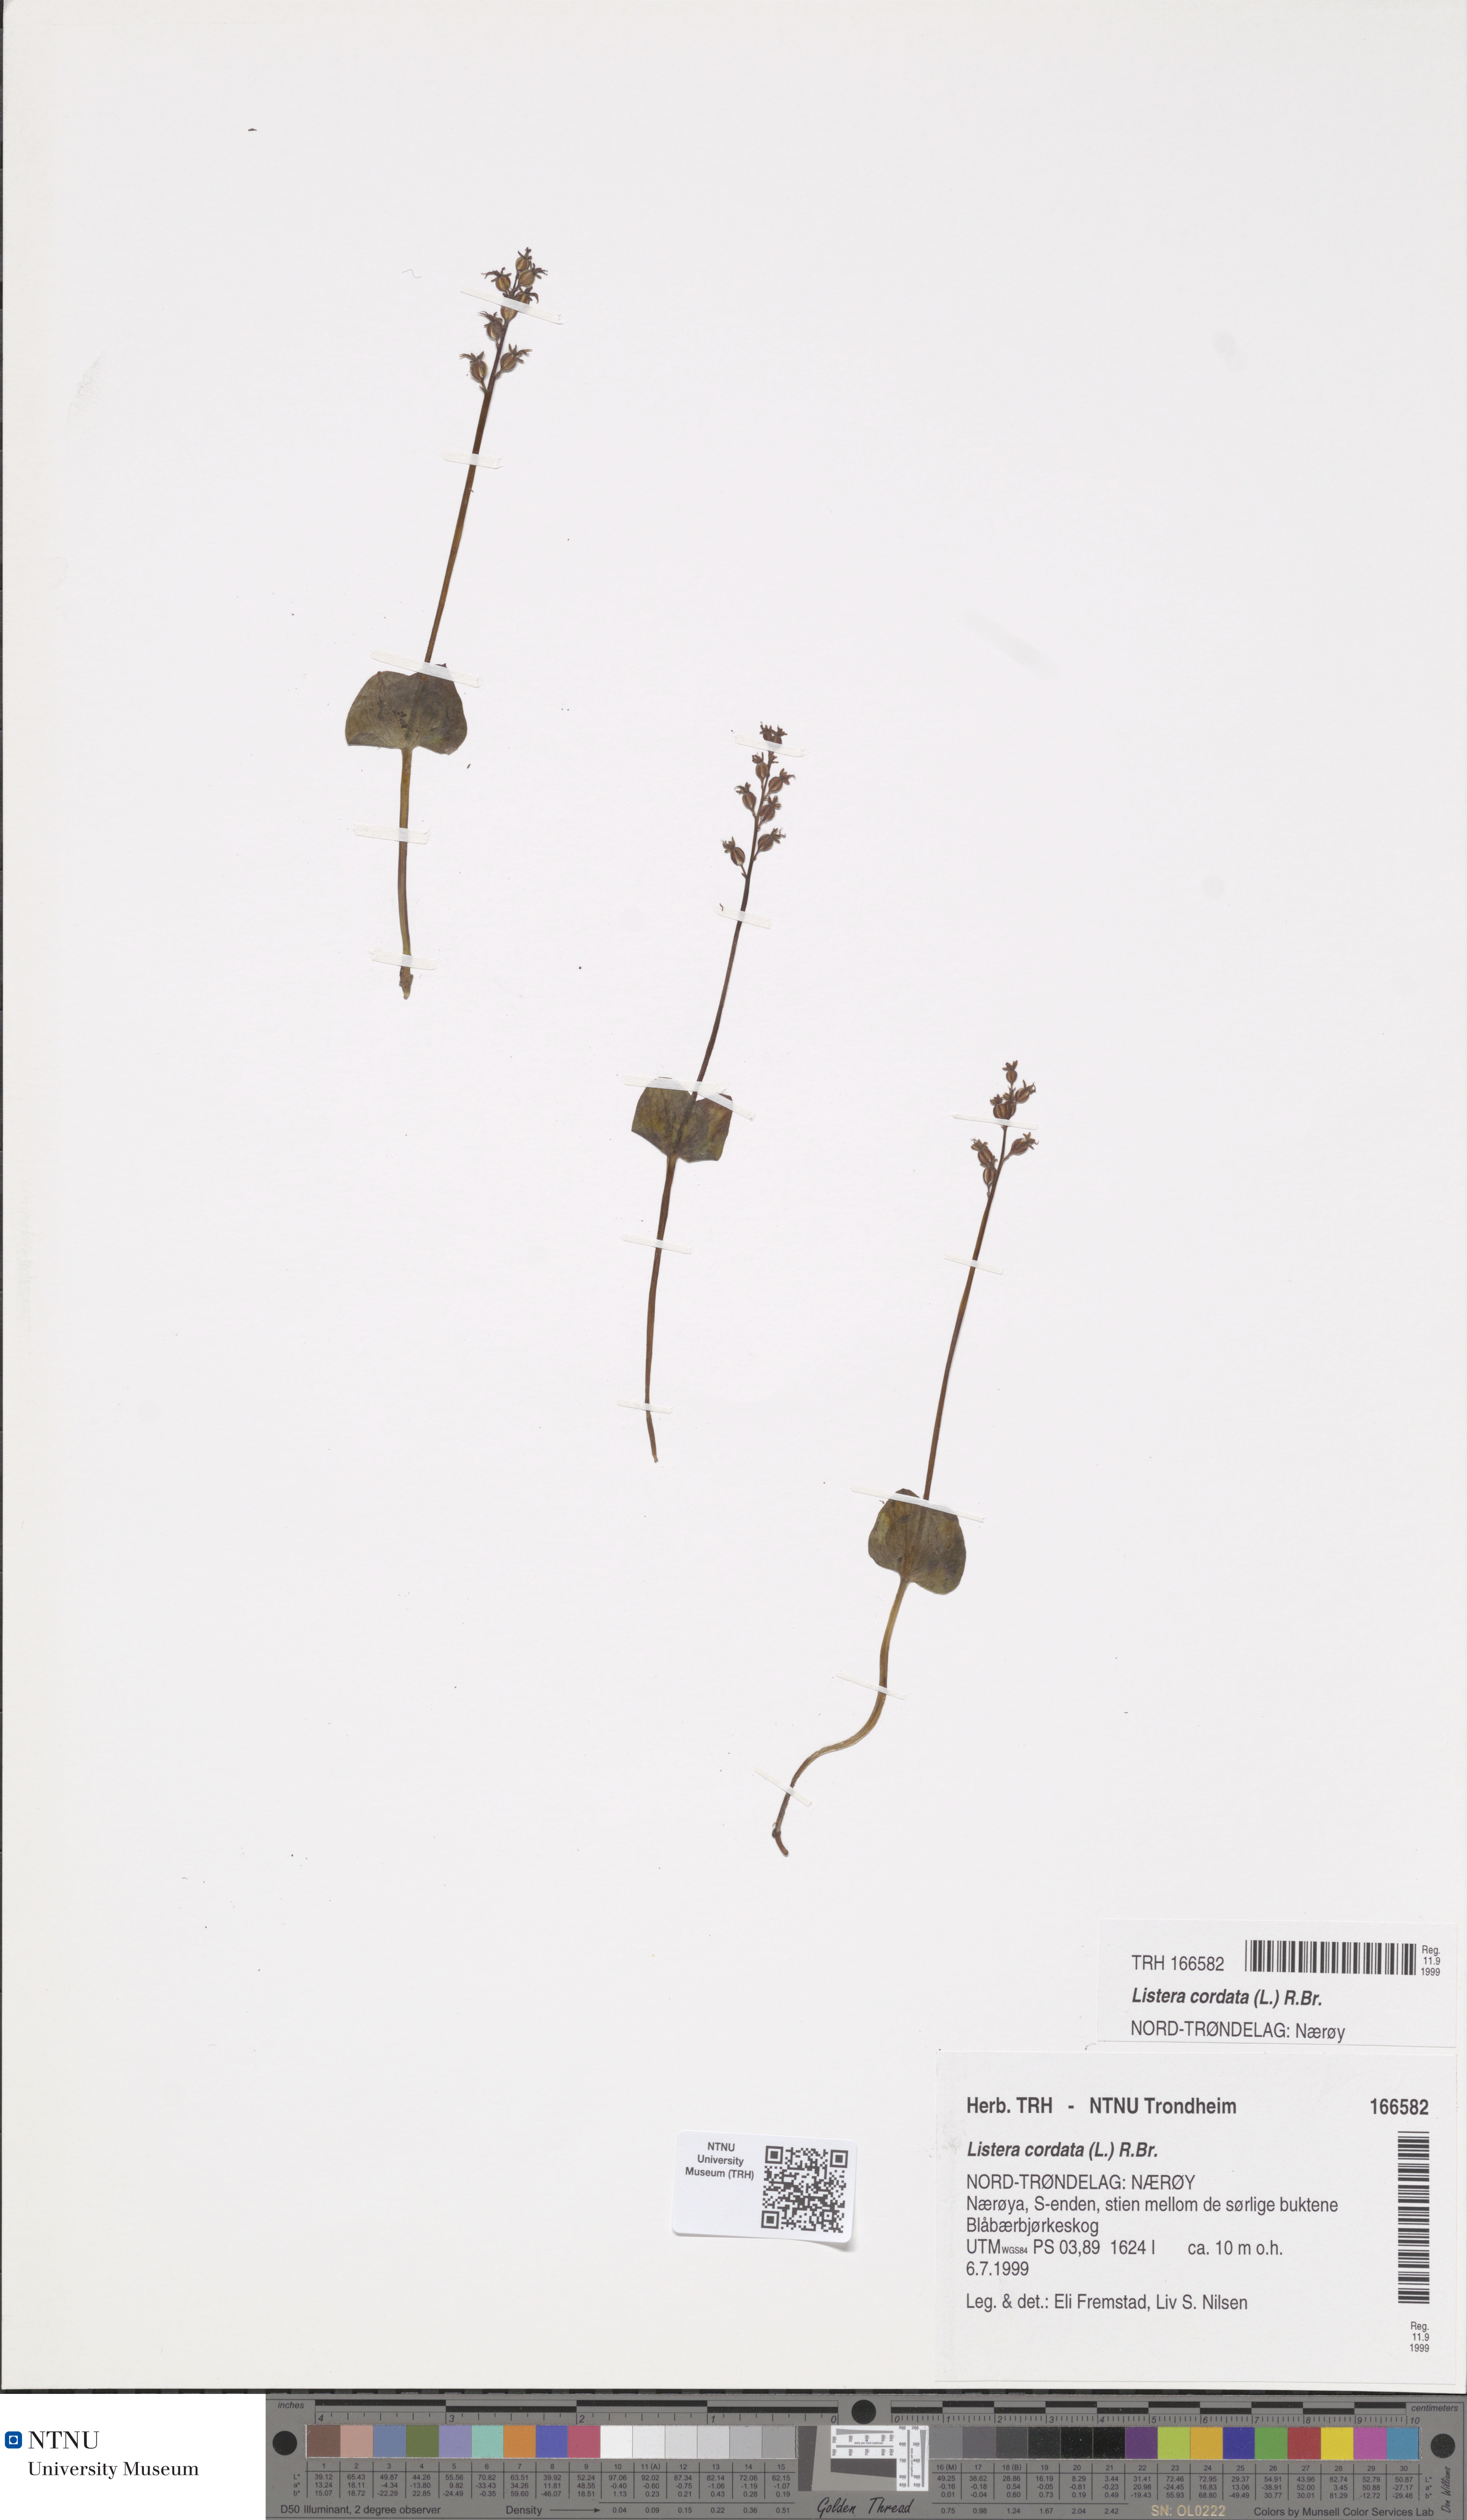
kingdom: Plantae
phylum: Tracheophyta
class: Liliopsida
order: Asparagales
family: Orchidaceae
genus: Neottia
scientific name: Neottia cordata
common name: Lesser twayblade
